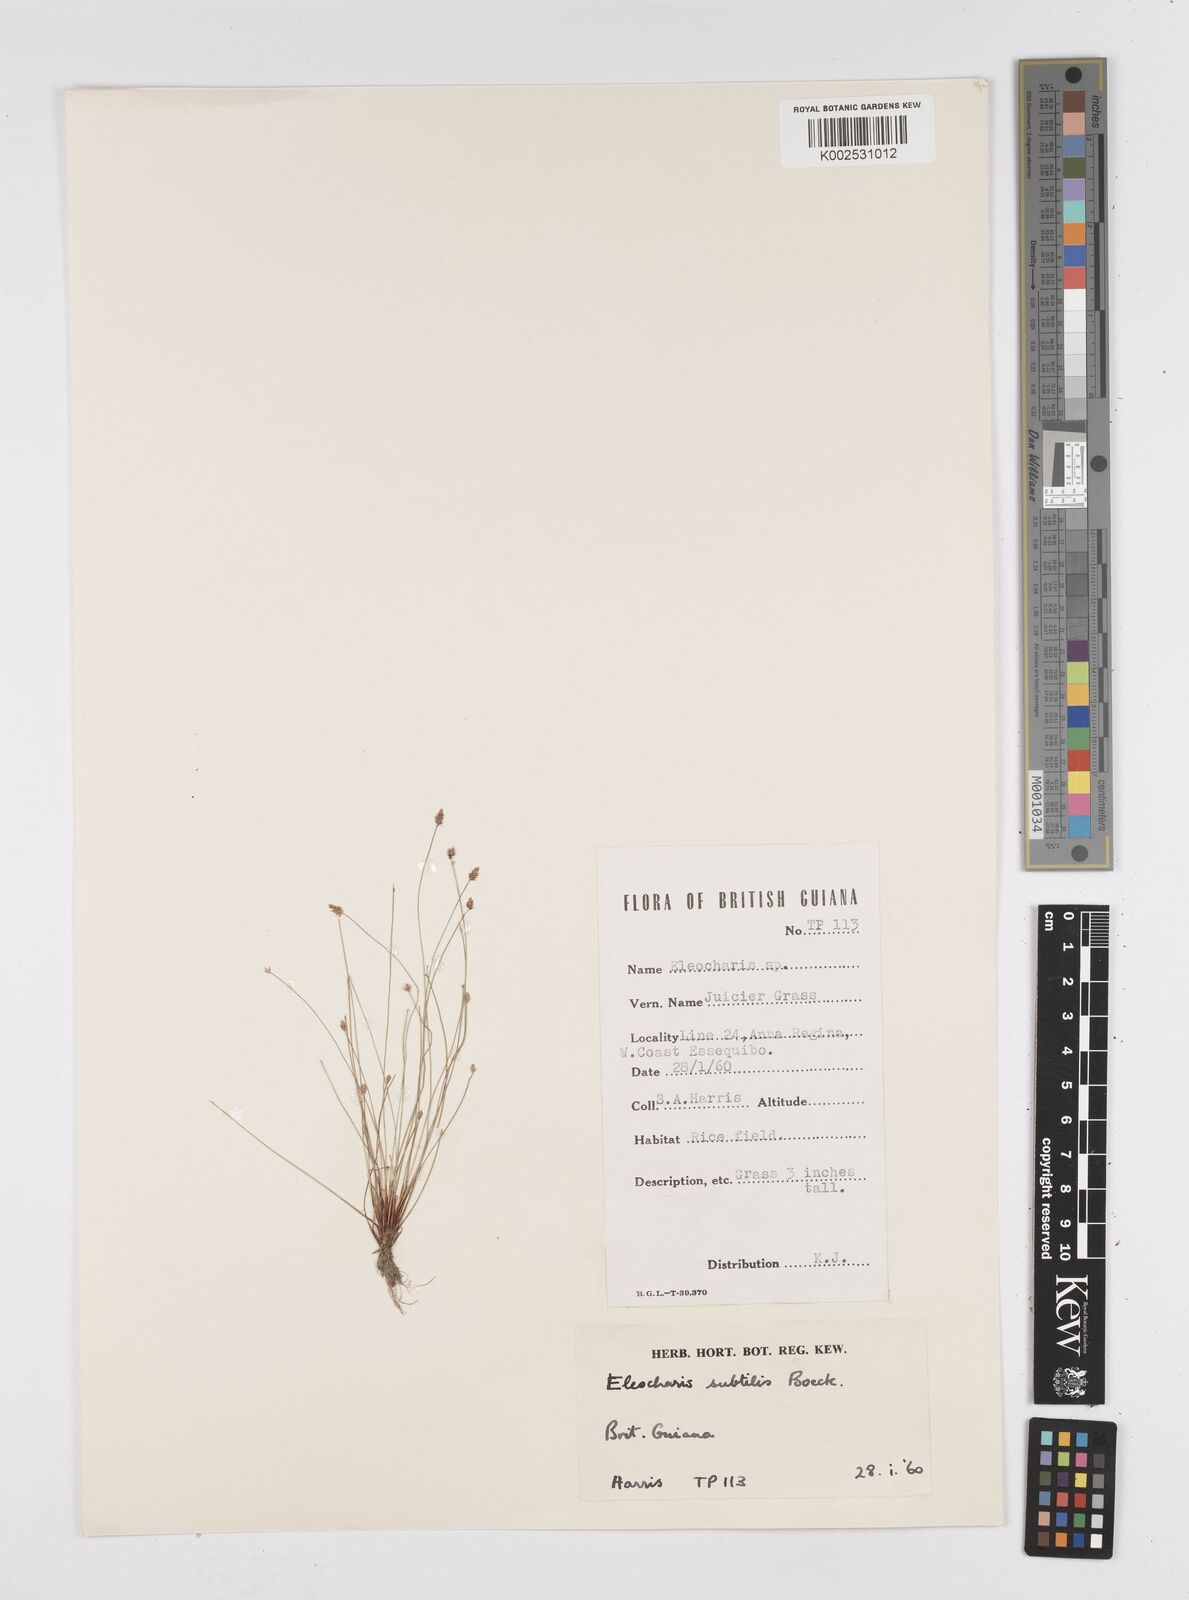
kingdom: Plantae
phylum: Tracheophyta
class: Liliopsida
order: Poales
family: Cyperaceae
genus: Eleocharis
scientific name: Eleocharis minima
